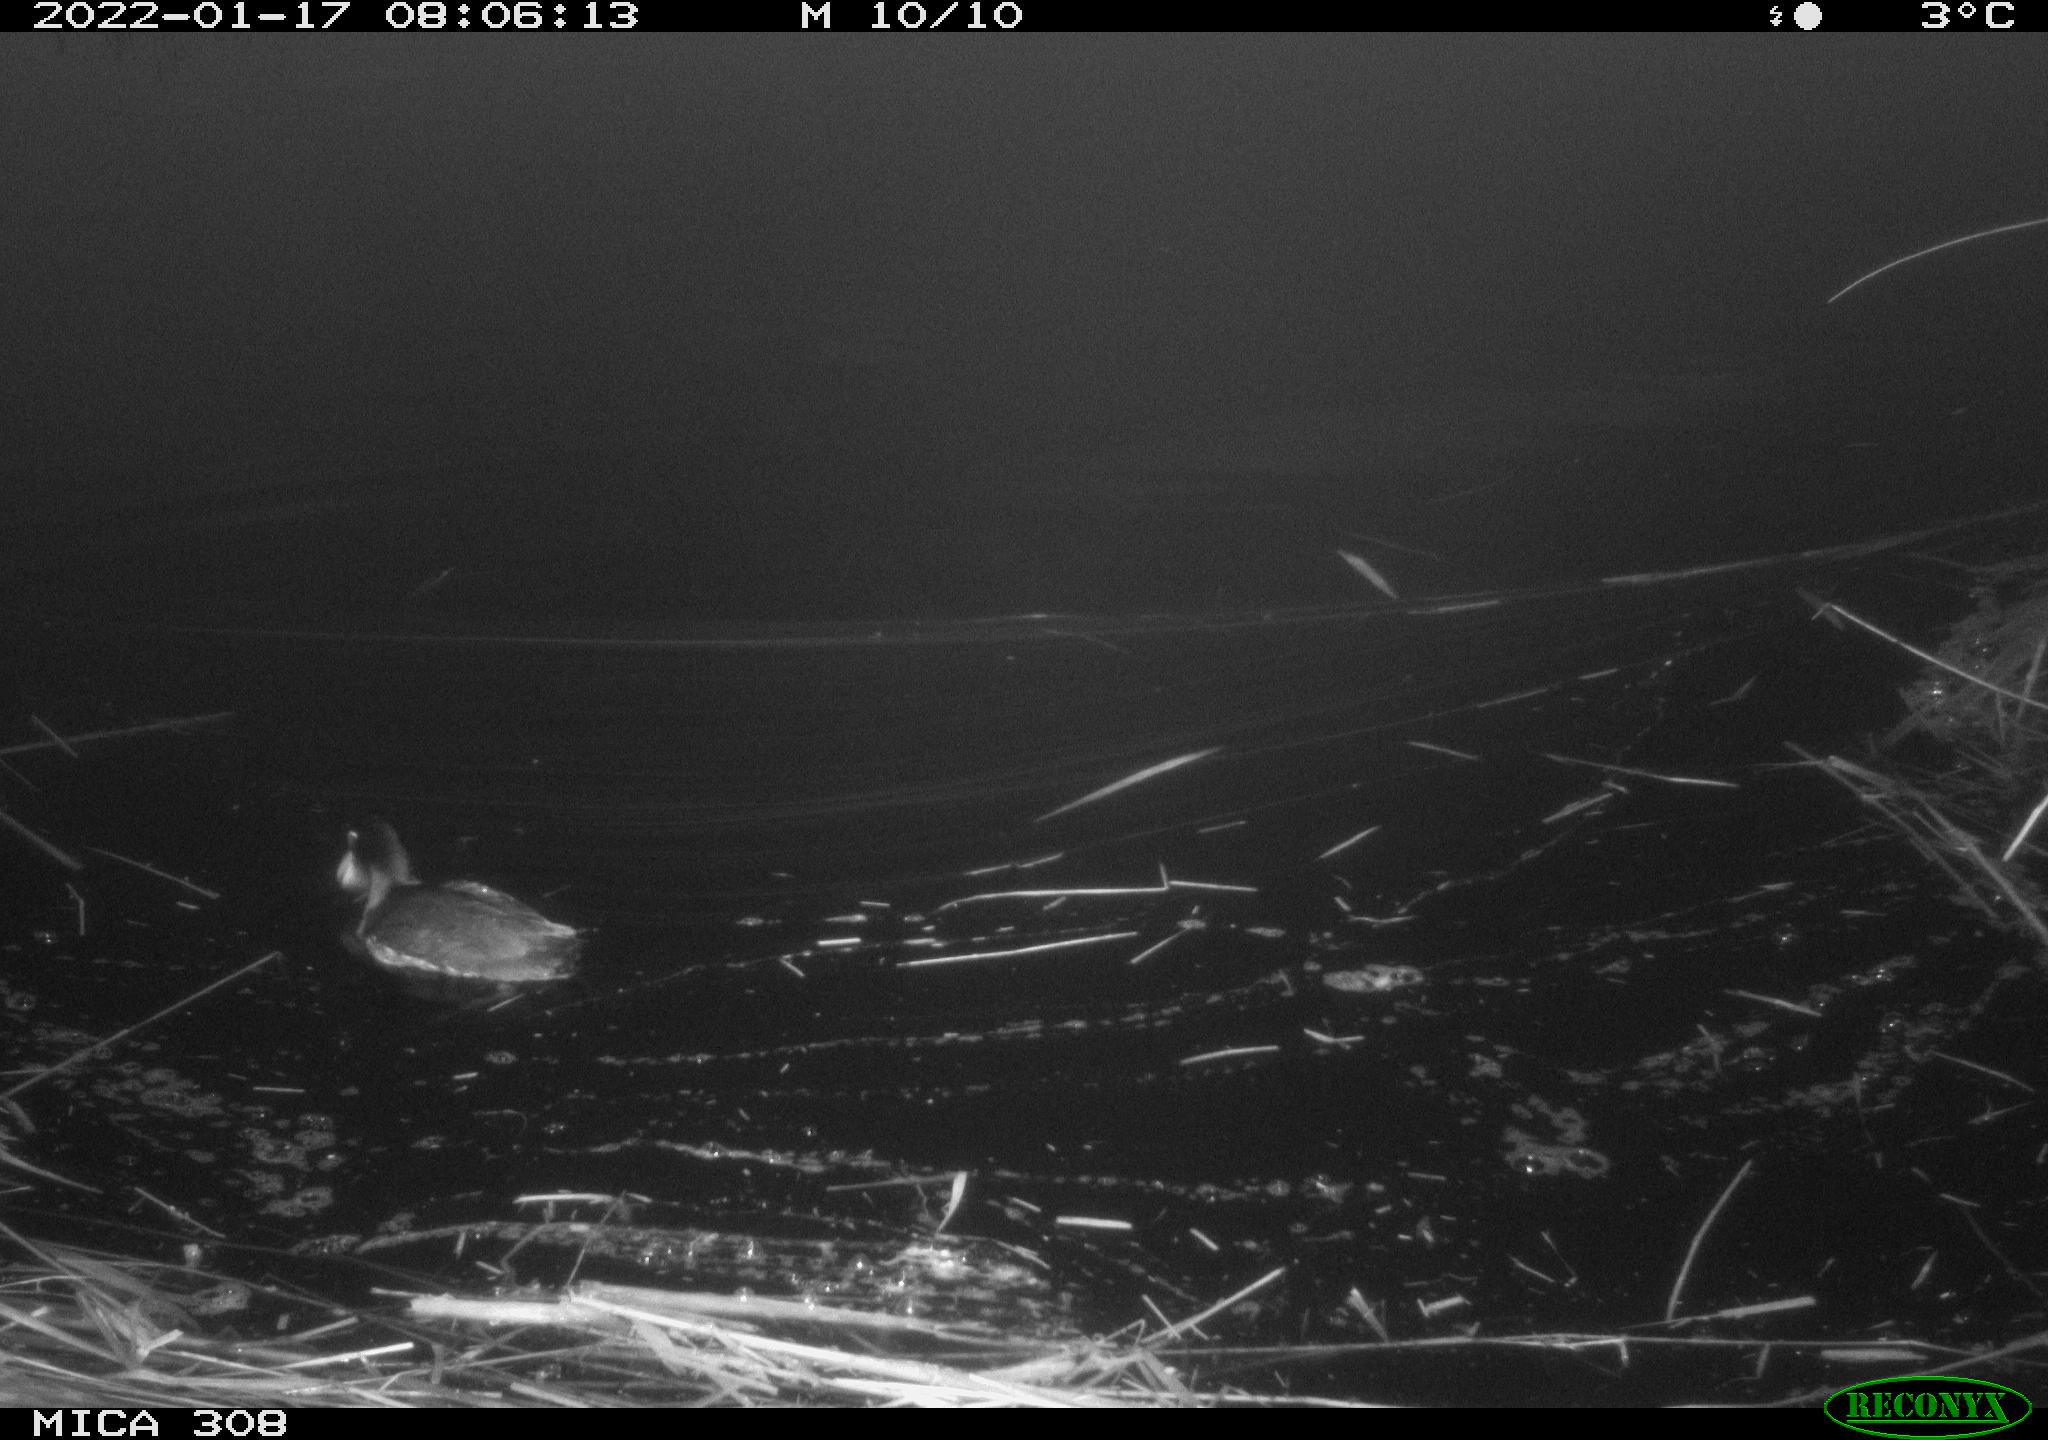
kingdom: Animalia
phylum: Chordata
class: Aves
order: Gruiformes
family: Rallidae
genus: Fulica
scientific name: Fulica atra
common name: Eurasian coot
